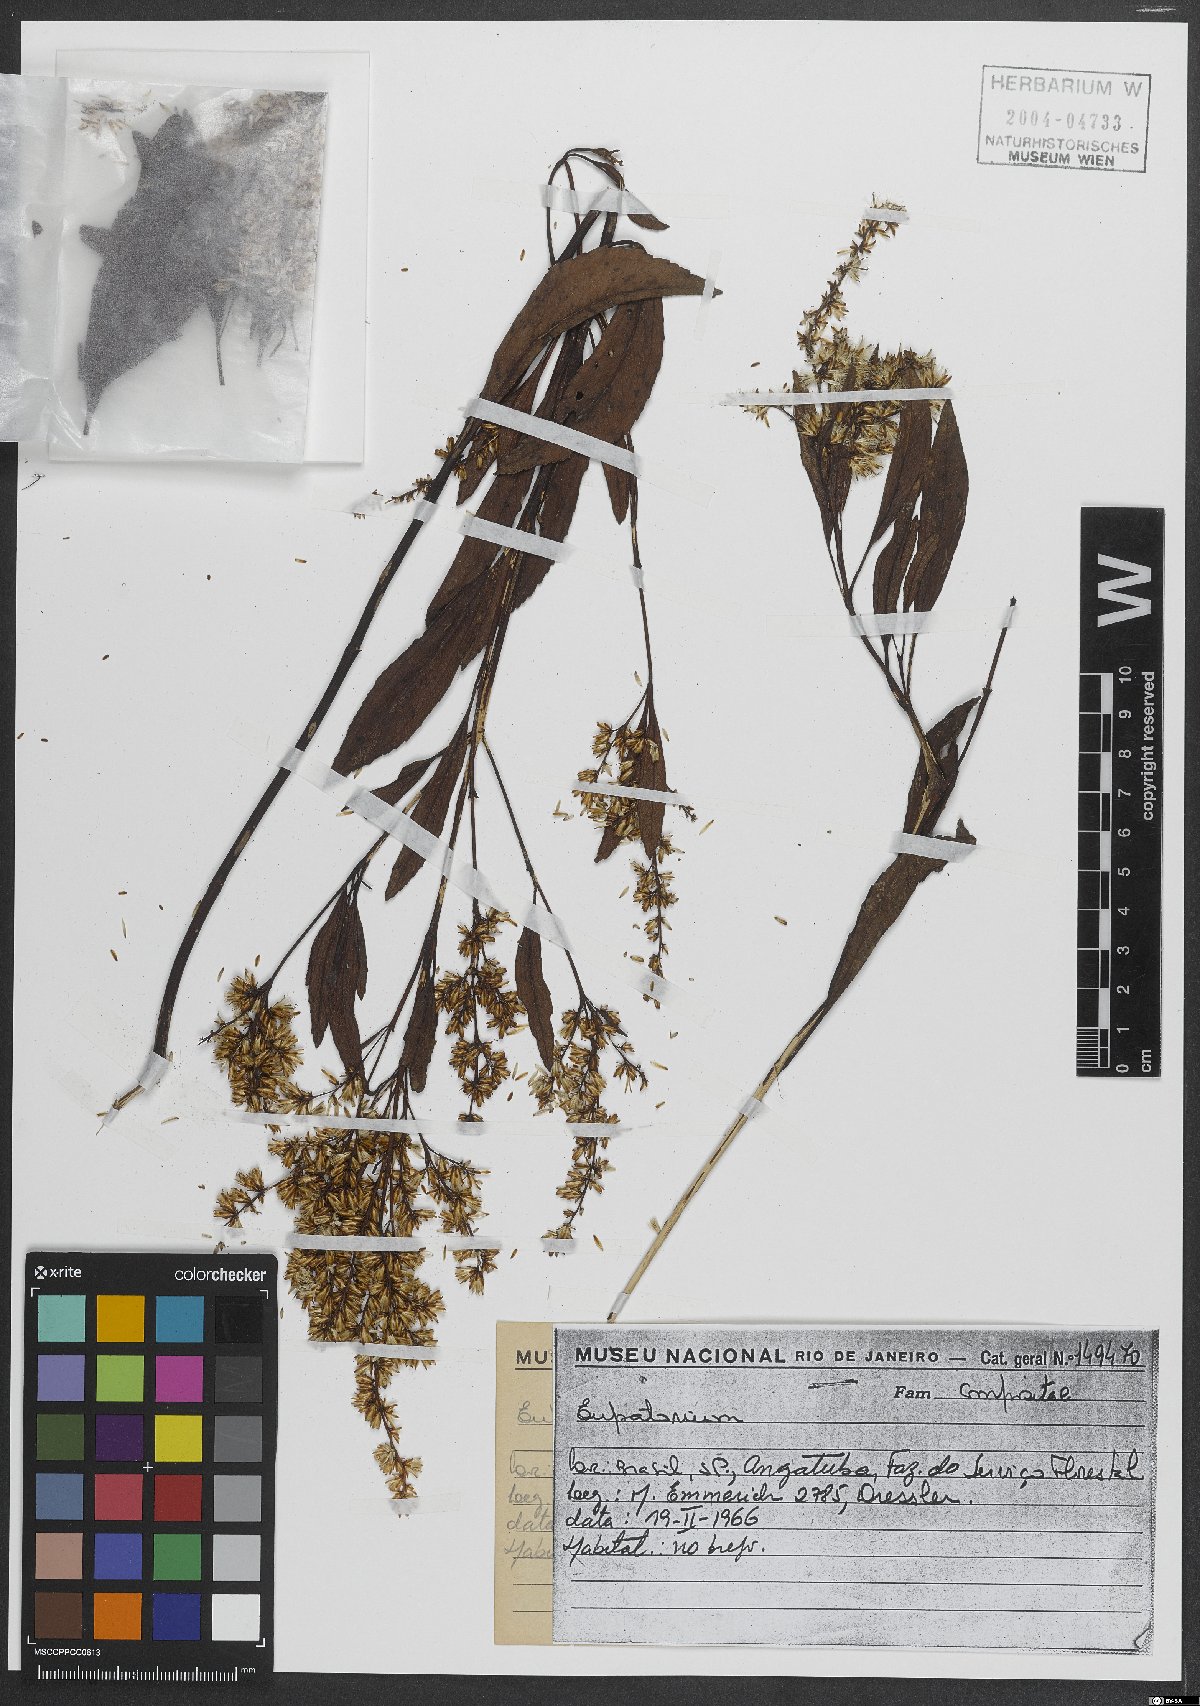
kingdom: Plantae
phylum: Tracheophyta
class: Magnoliopsida
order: Asterales
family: Asteraceae
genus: Eupatorium
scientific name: Eupatorium
